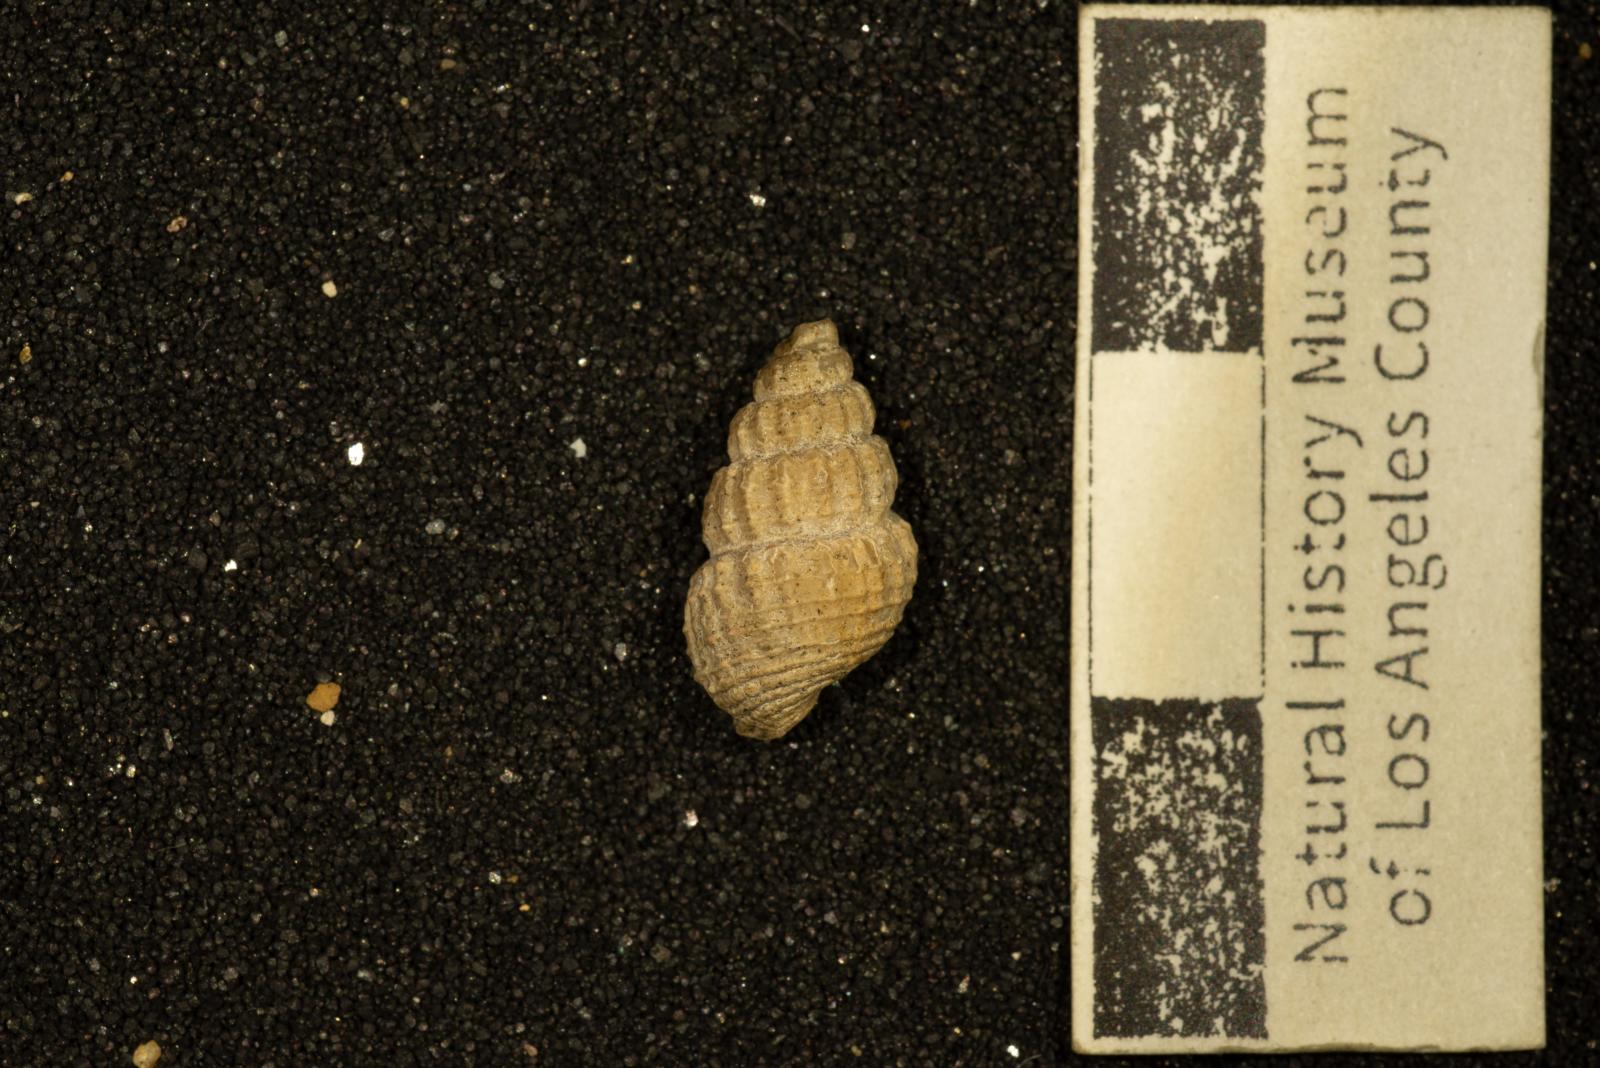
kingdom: Animalia
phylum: Mollusca
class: Gastropoda
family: Epitoniidae
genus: Belliscala
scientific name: Belliscala meta
